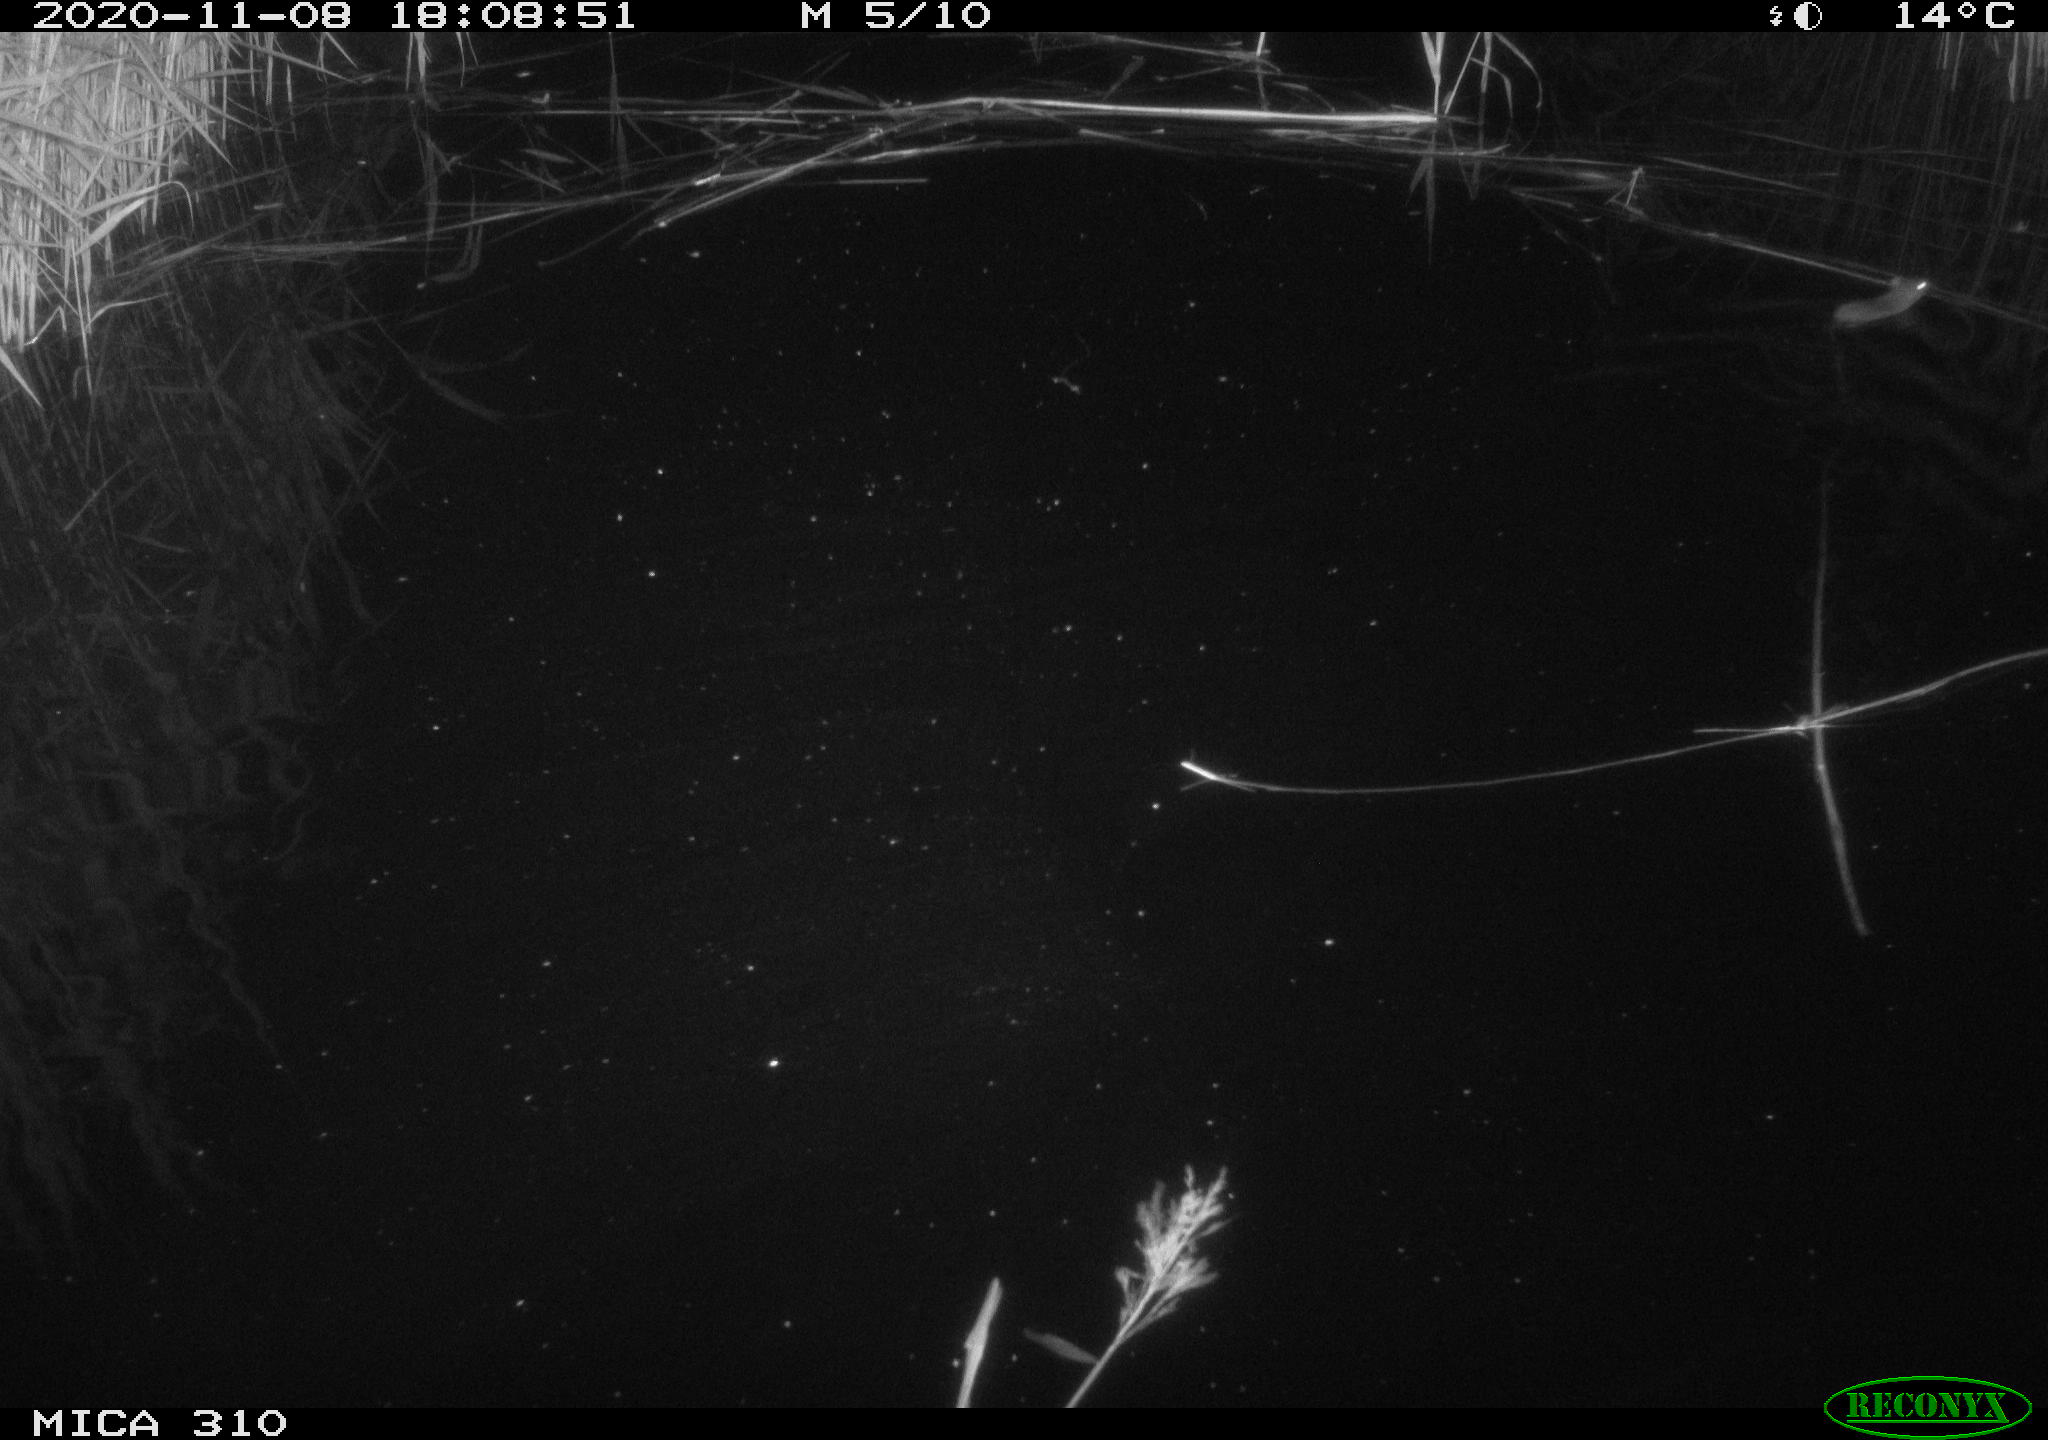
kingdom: Animalia
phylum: Chordata
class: Mammalia
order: Rodentia
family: Muridae
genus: Rattus
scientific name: Rattus norvegicus
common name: Brown rat
